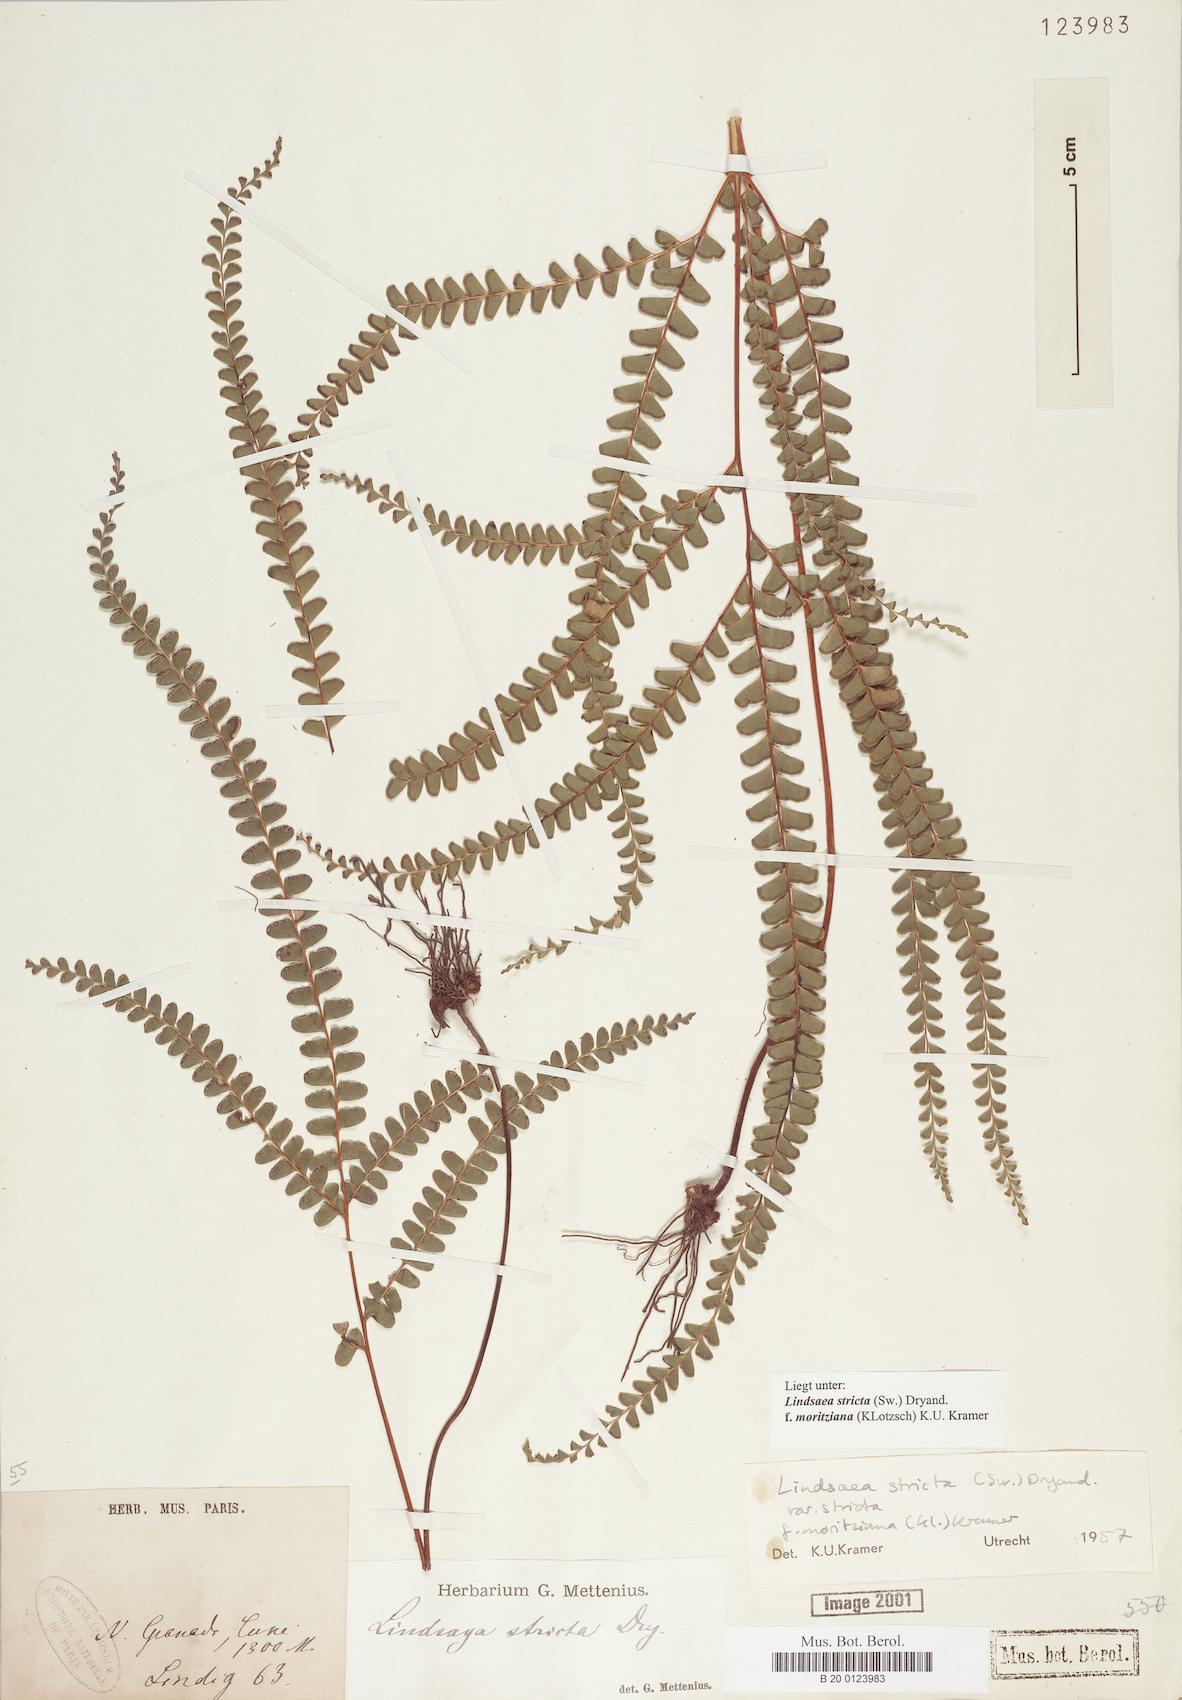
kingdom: Plantae
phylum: Tracheophyta
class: Polypodiopsida
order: Polypodiales
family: Lindsaeaceae
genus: Lindsaea
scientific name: Lindsaea guianensis
